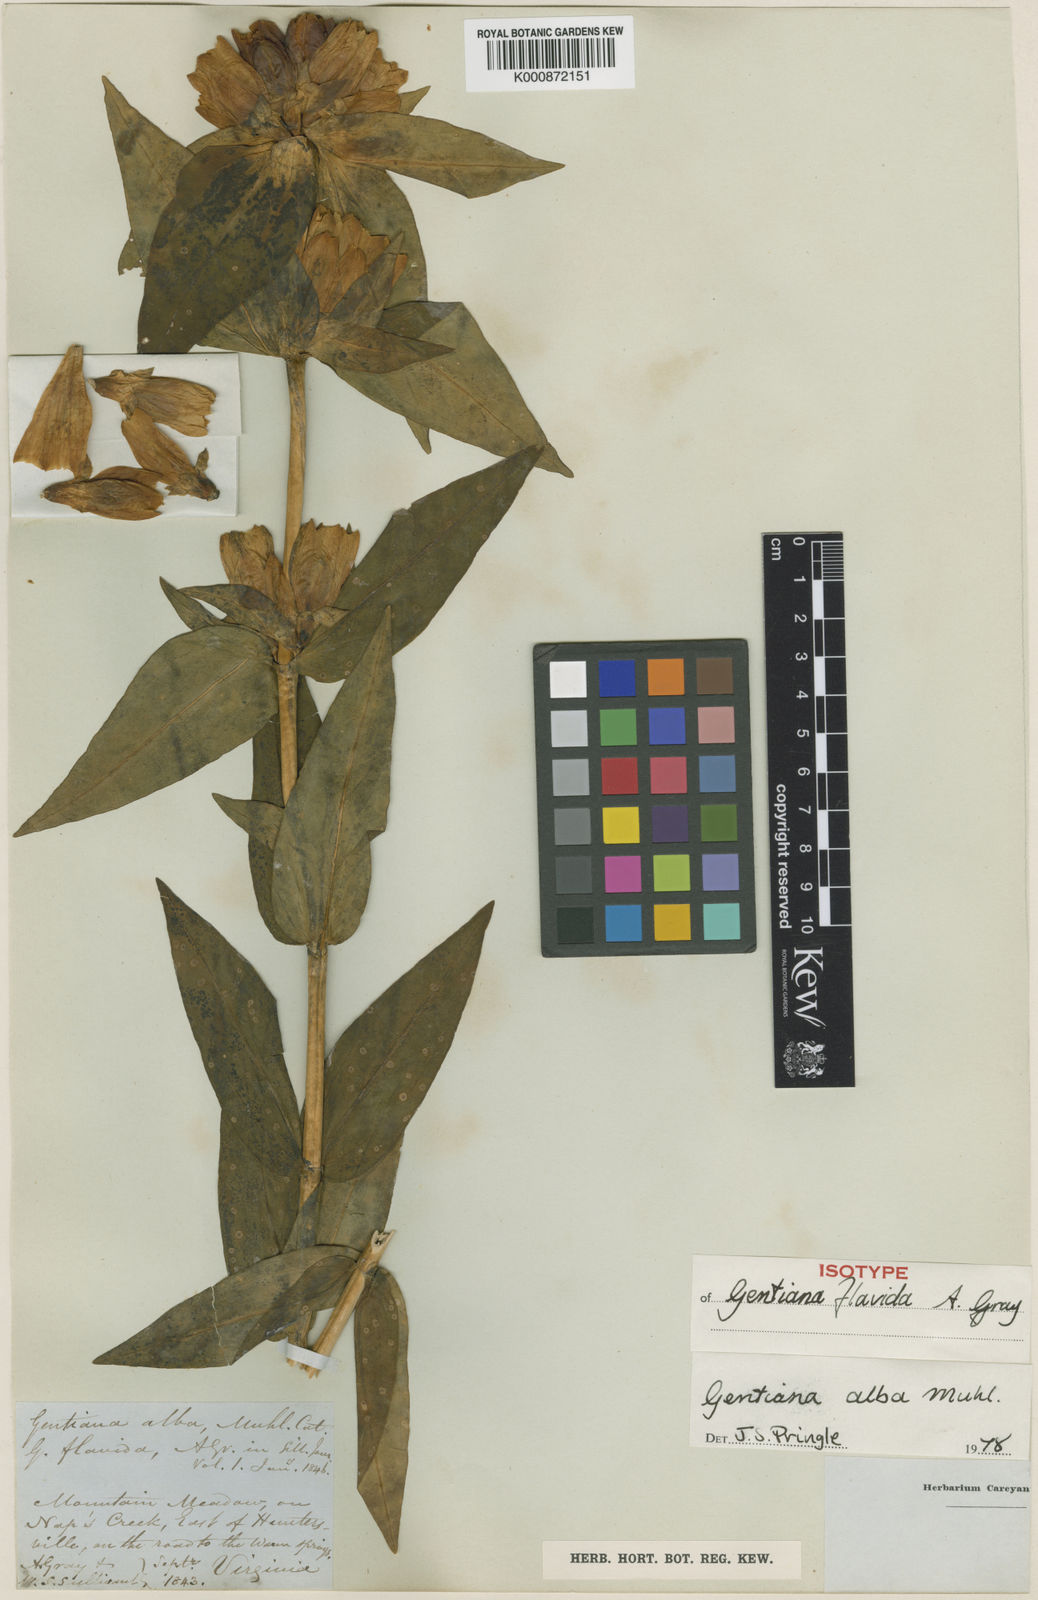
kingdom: Plantae
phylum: Tracheophyta
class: Magnoliopsida
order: Gentianales
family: Gentianaceae
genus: Gentiana
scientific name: Gentiana
